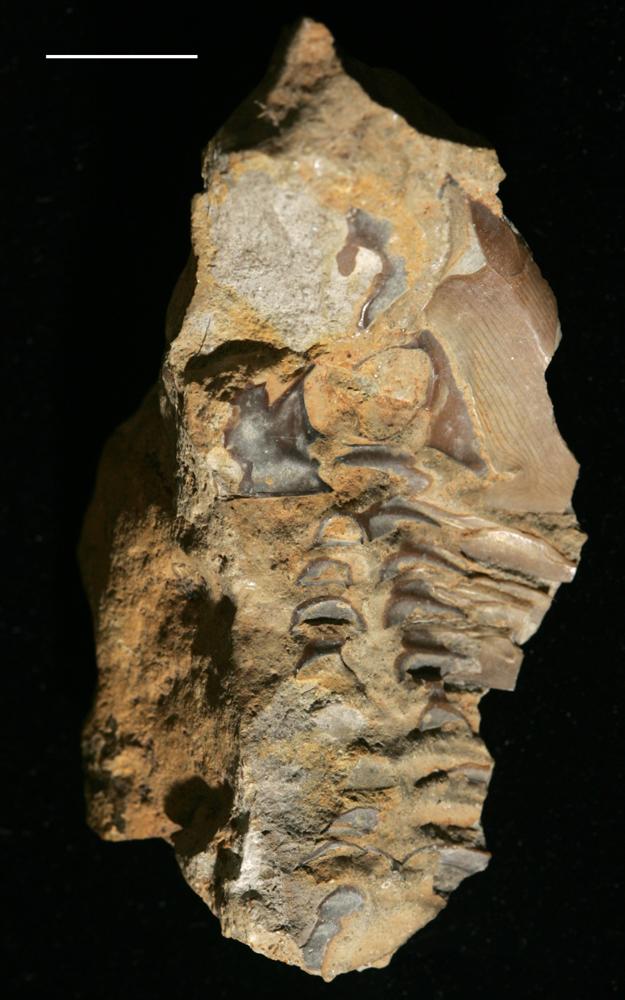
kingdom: Animalia
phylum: Arthropoda
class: Trilobita
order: Asaphida
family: Asaphidae
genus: Pseudasaphus
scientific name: Pseudasaphus globifrons
